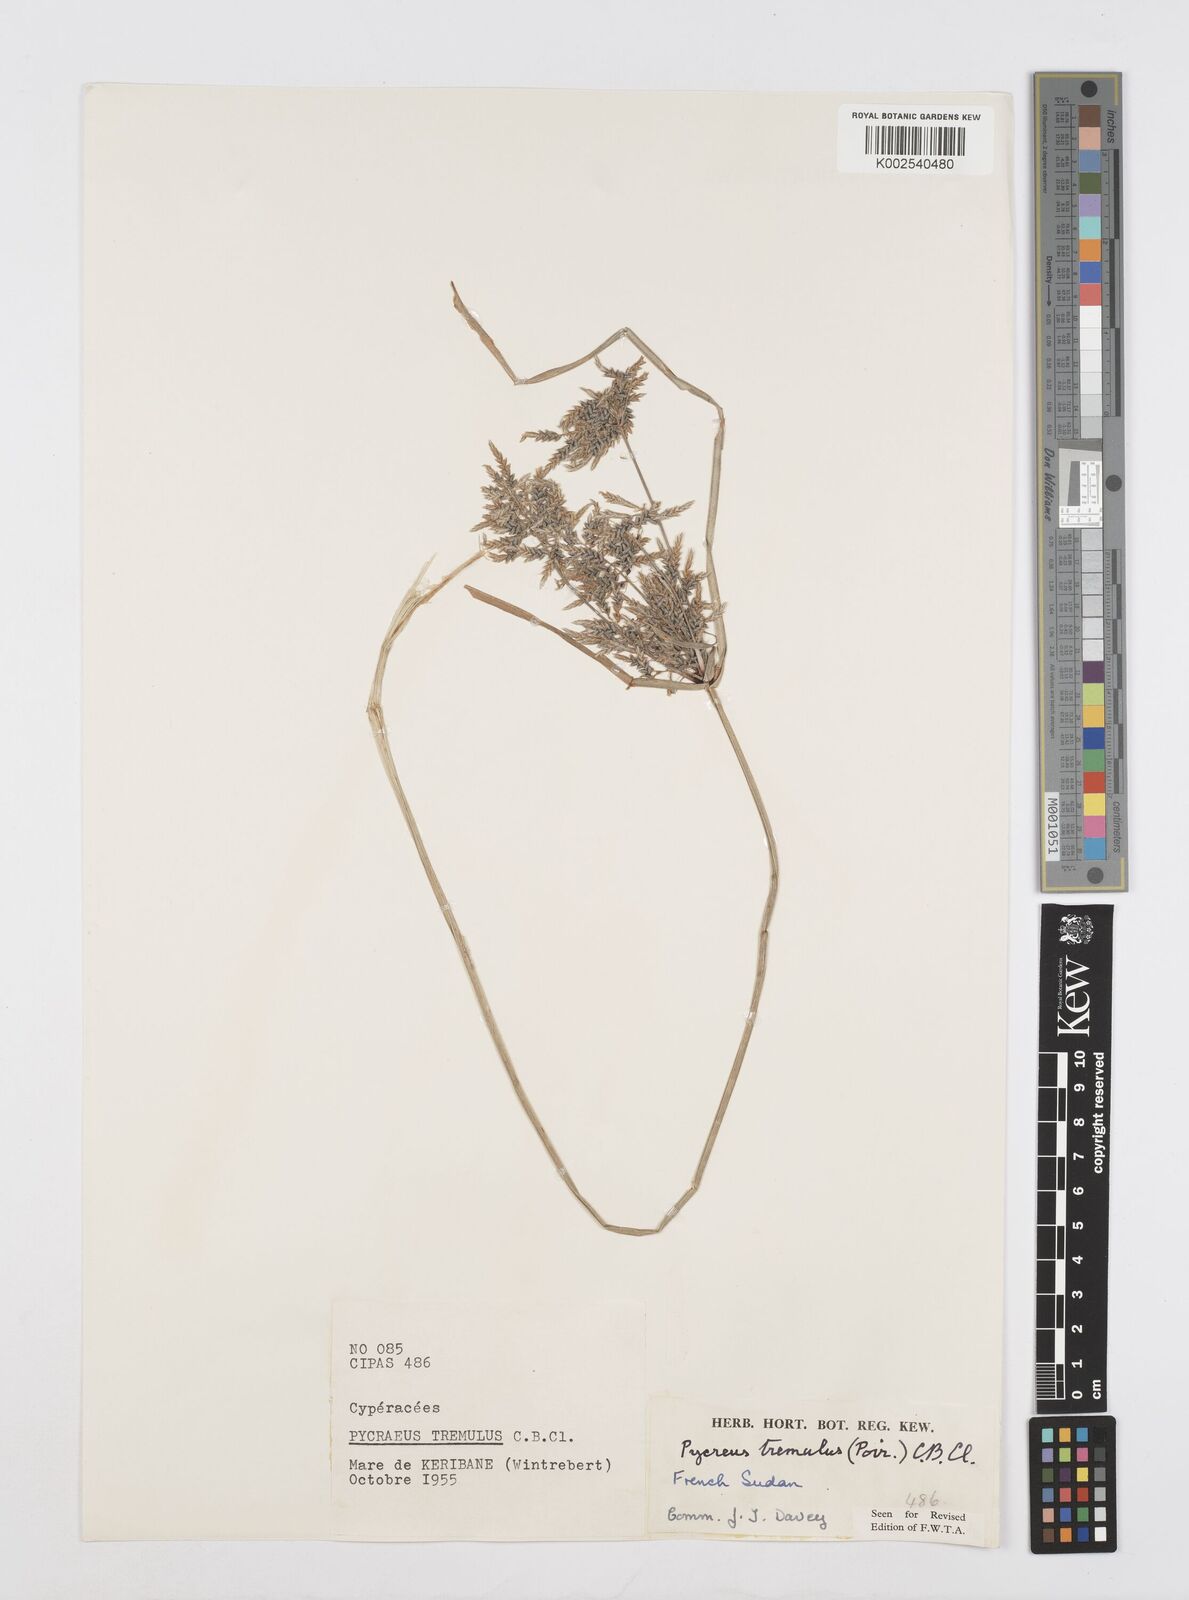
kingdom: Plantae
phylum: Tracheophyta
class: Liliopsida
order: Poales
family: Cyperaceae
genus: Cyperus
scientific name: Cyperus macrostachyos
